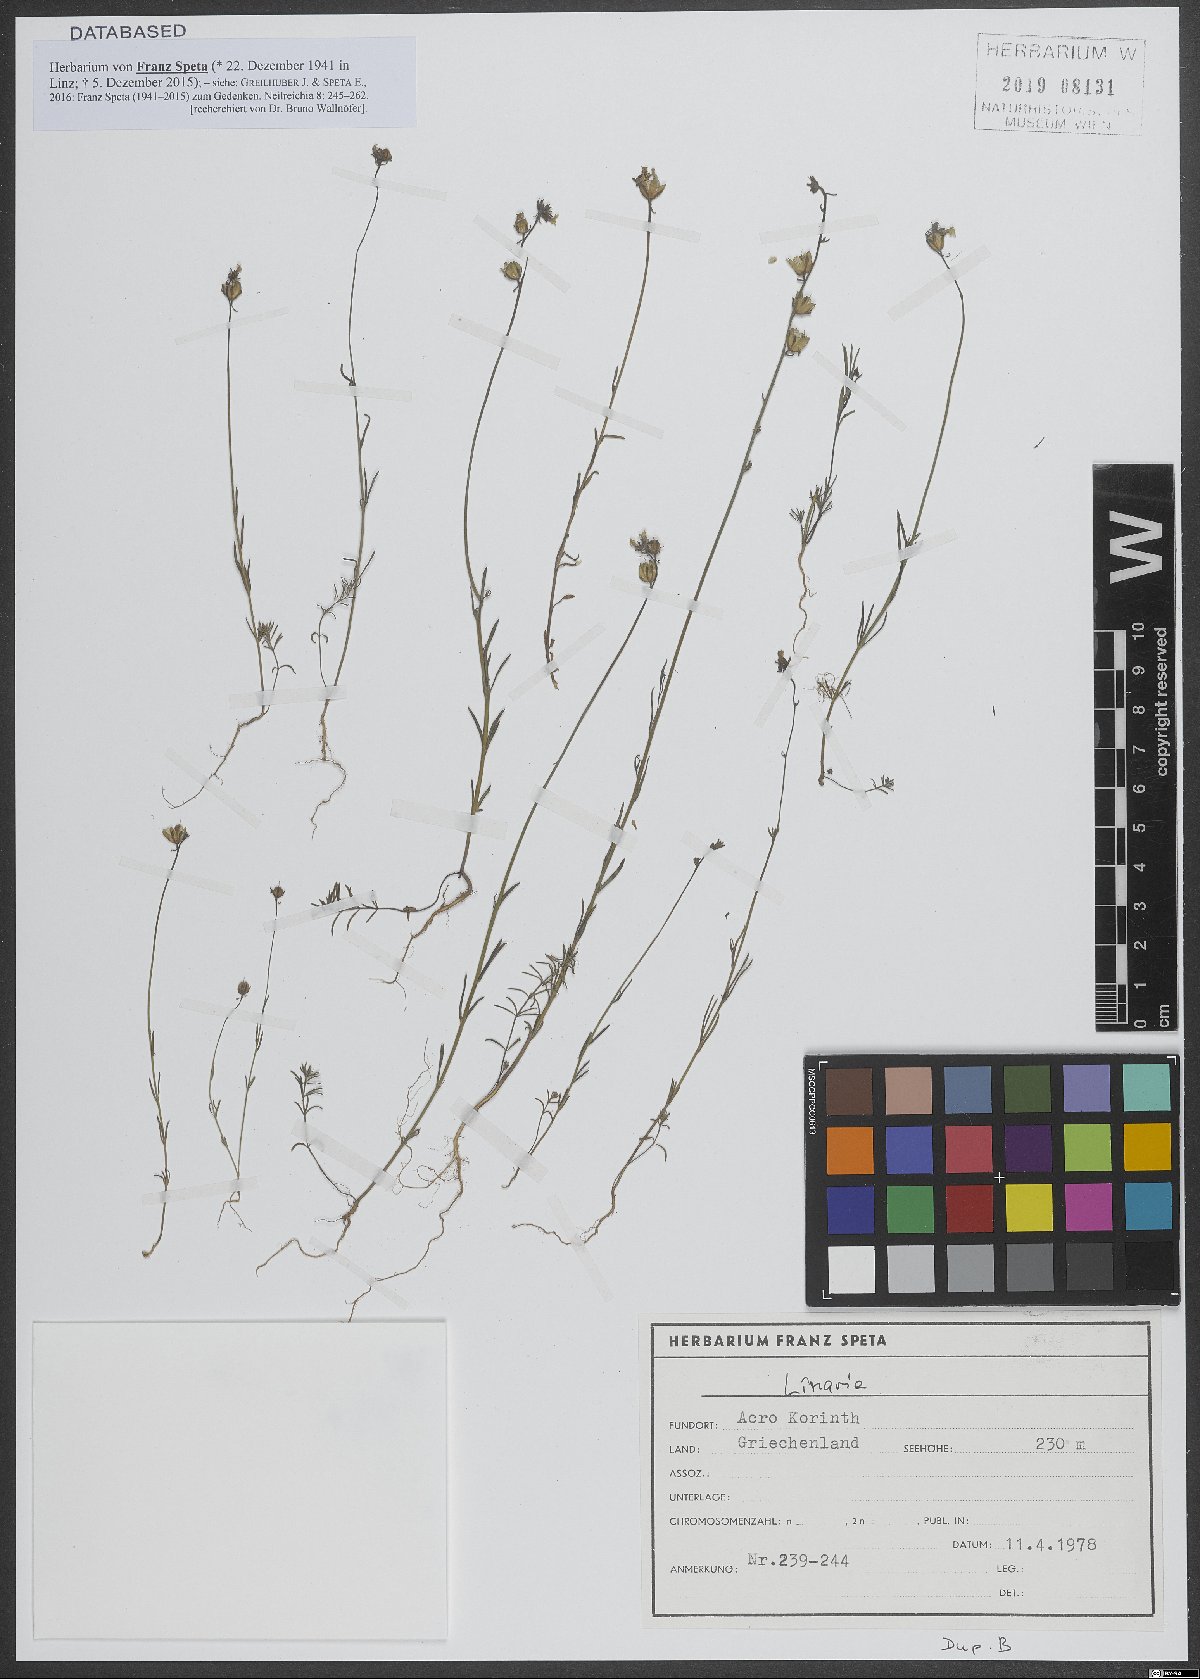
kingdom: Plantae
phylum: Tracheophyta
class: Magnoliopsida
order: Lamiales
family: Plantaginaceae
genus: Linaria
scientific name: Linaria
